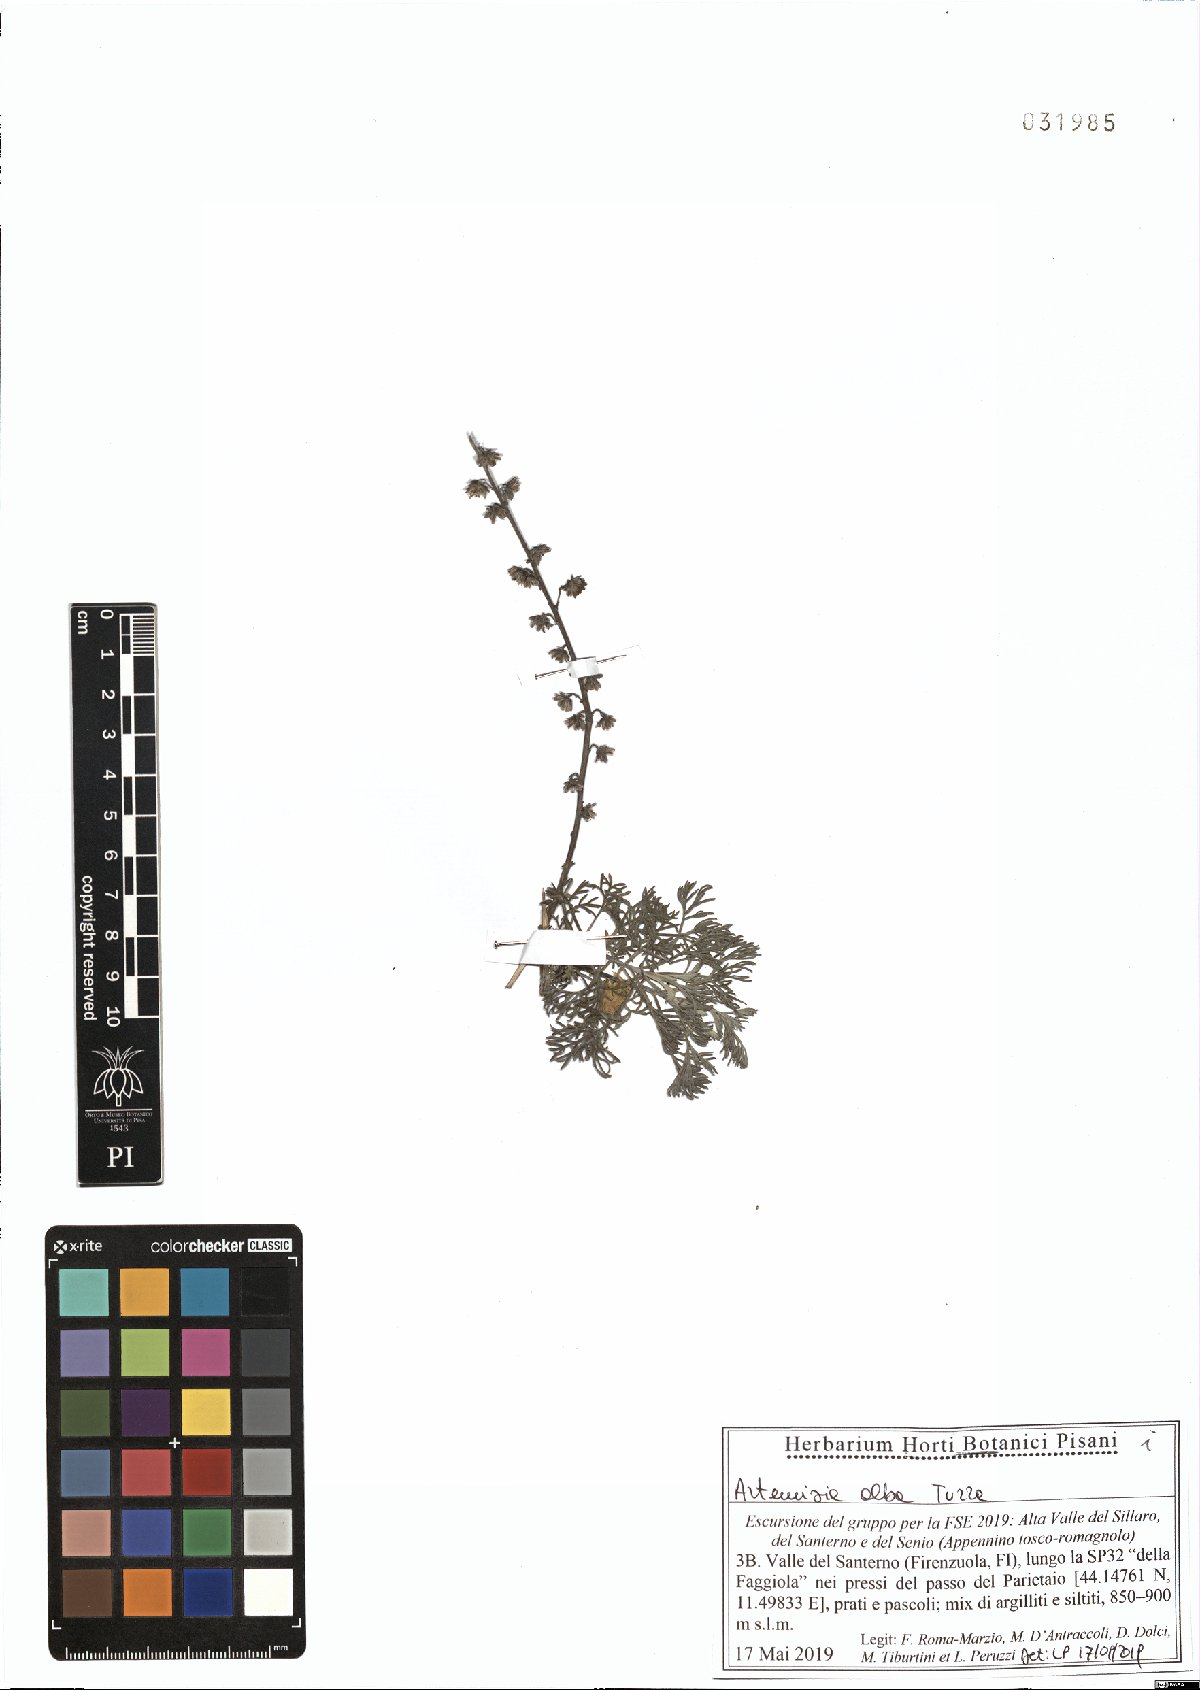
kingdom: Plantae
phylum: Tracheophyta
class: Magnoliopsida
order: Asterales
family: Asteraceae
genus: Artemisia
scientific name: Artemisia alba
